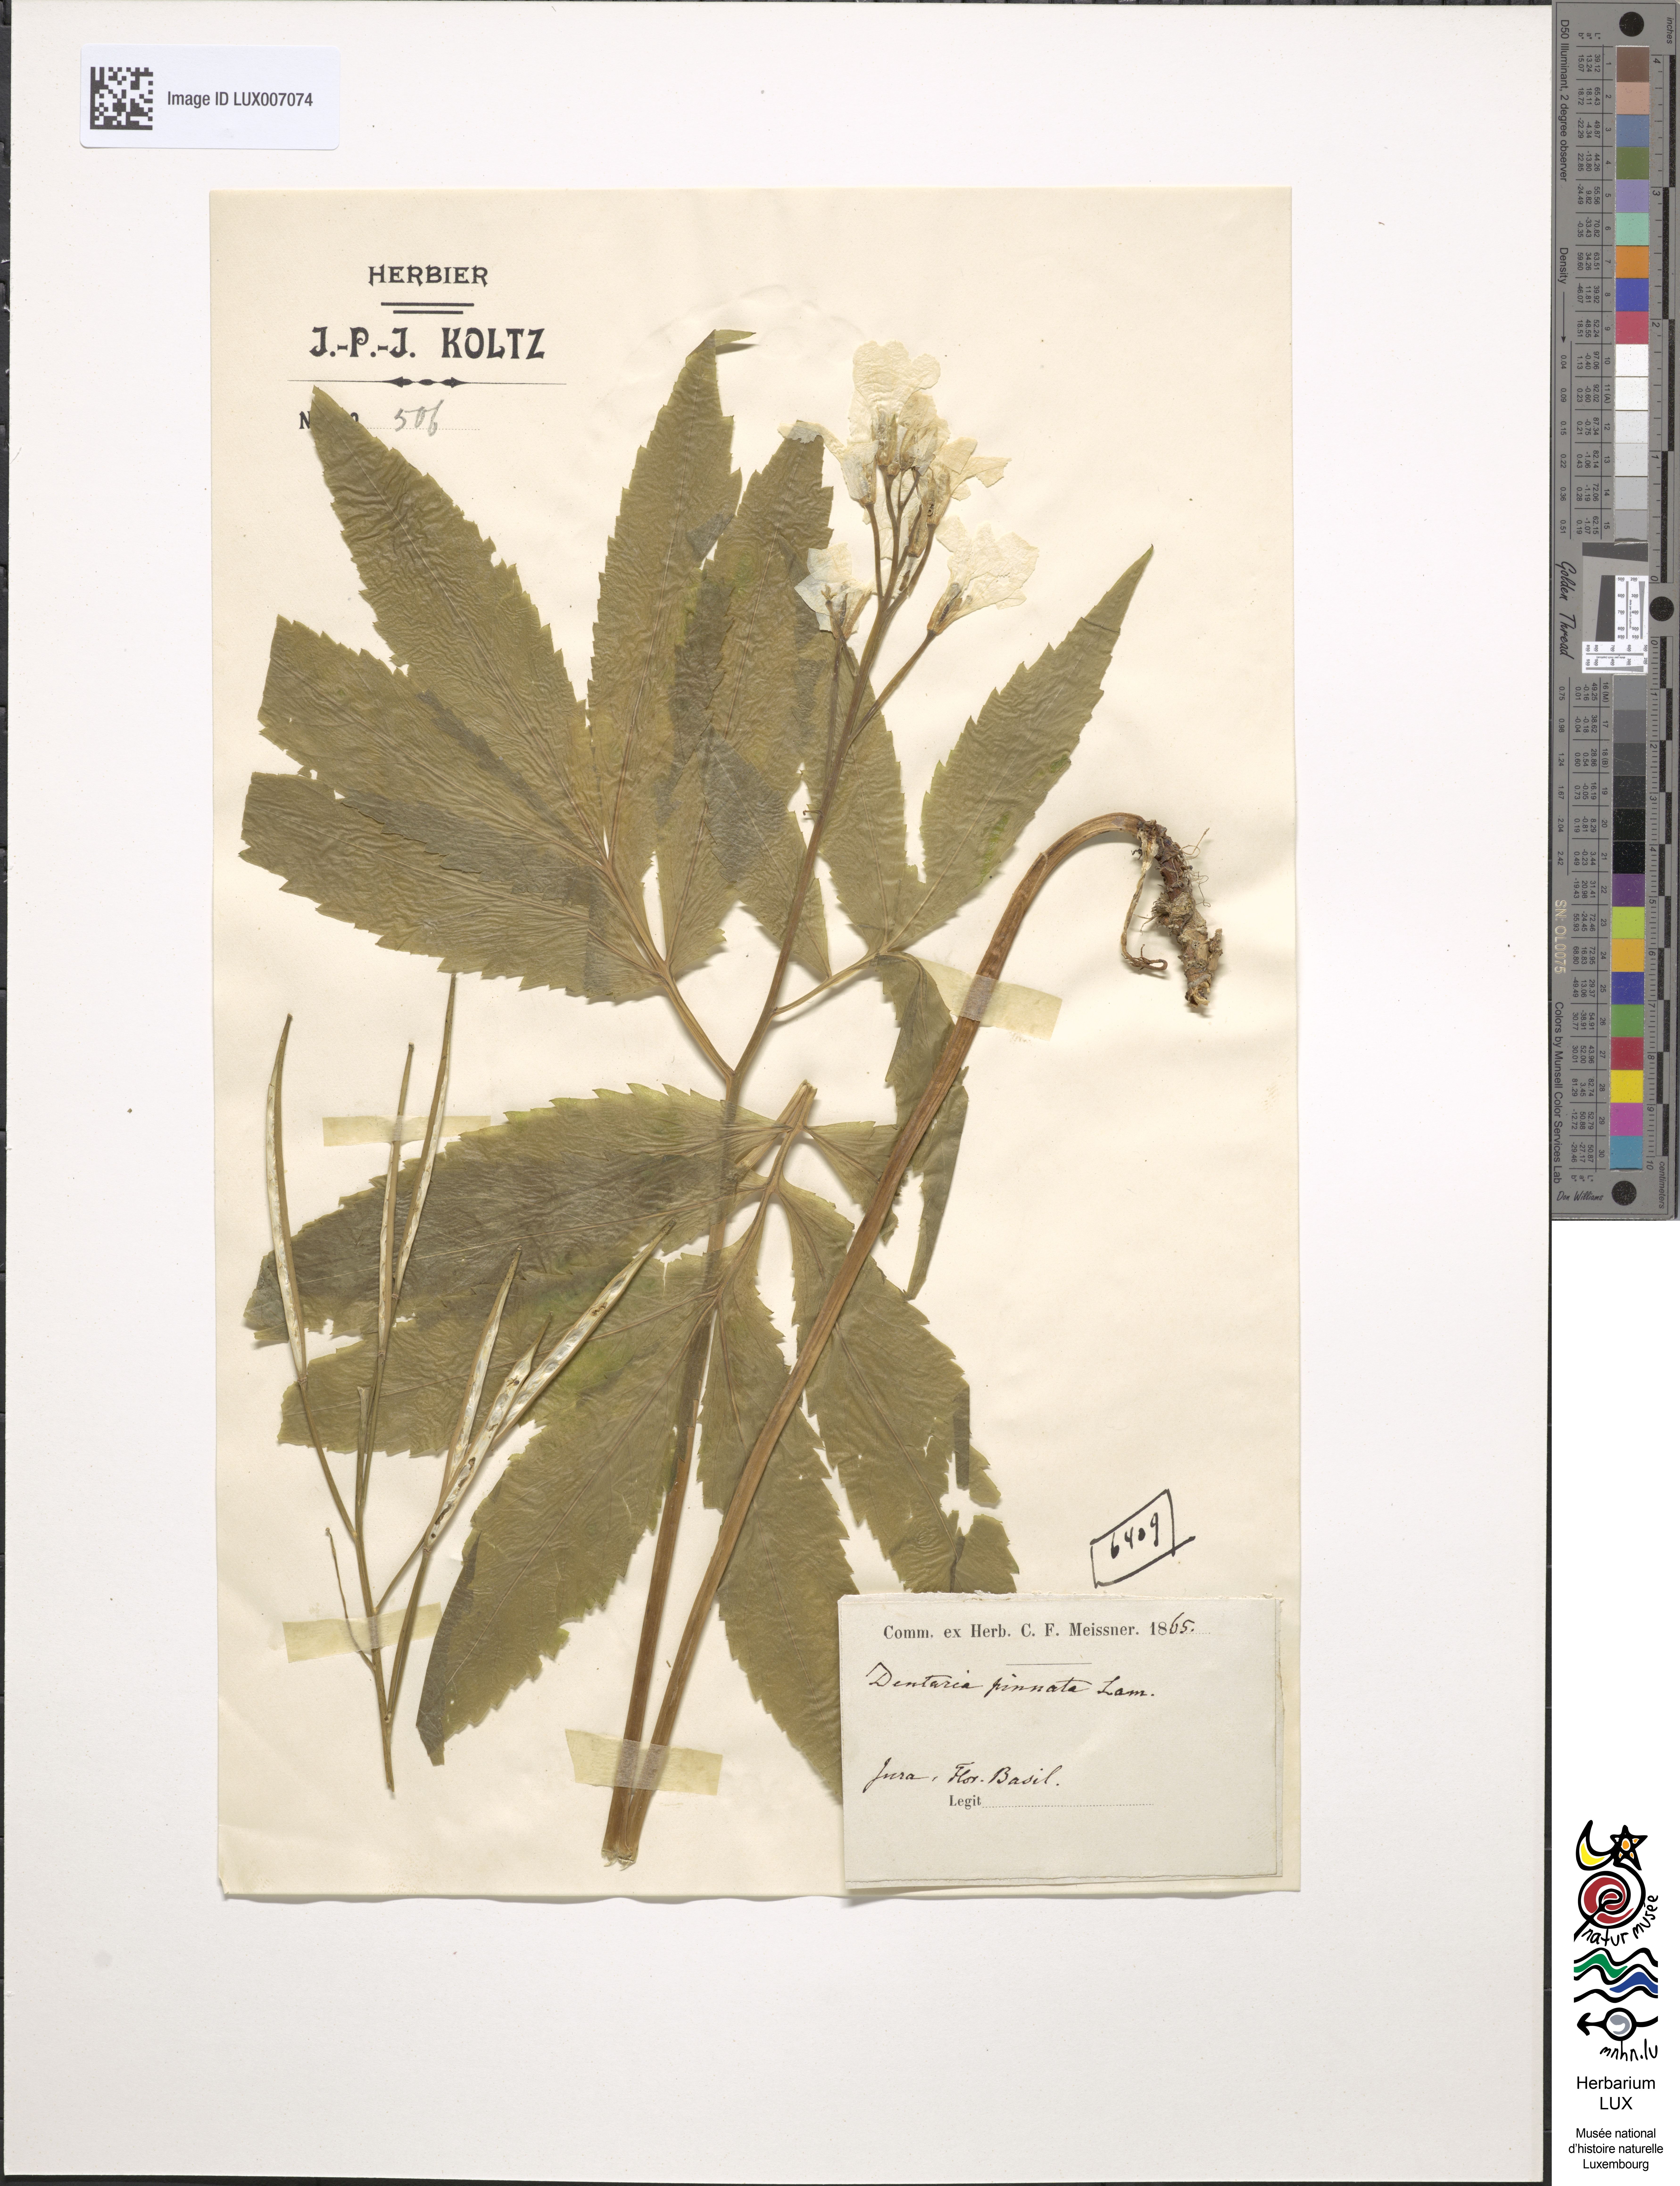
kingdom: Plantae
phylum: Tracheophyta
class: Magnoliopsida
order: Brassicales
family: Brassicaceae
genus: Cardamine
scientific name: Cardamine heptaphylla
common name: Pinnate coralroot
